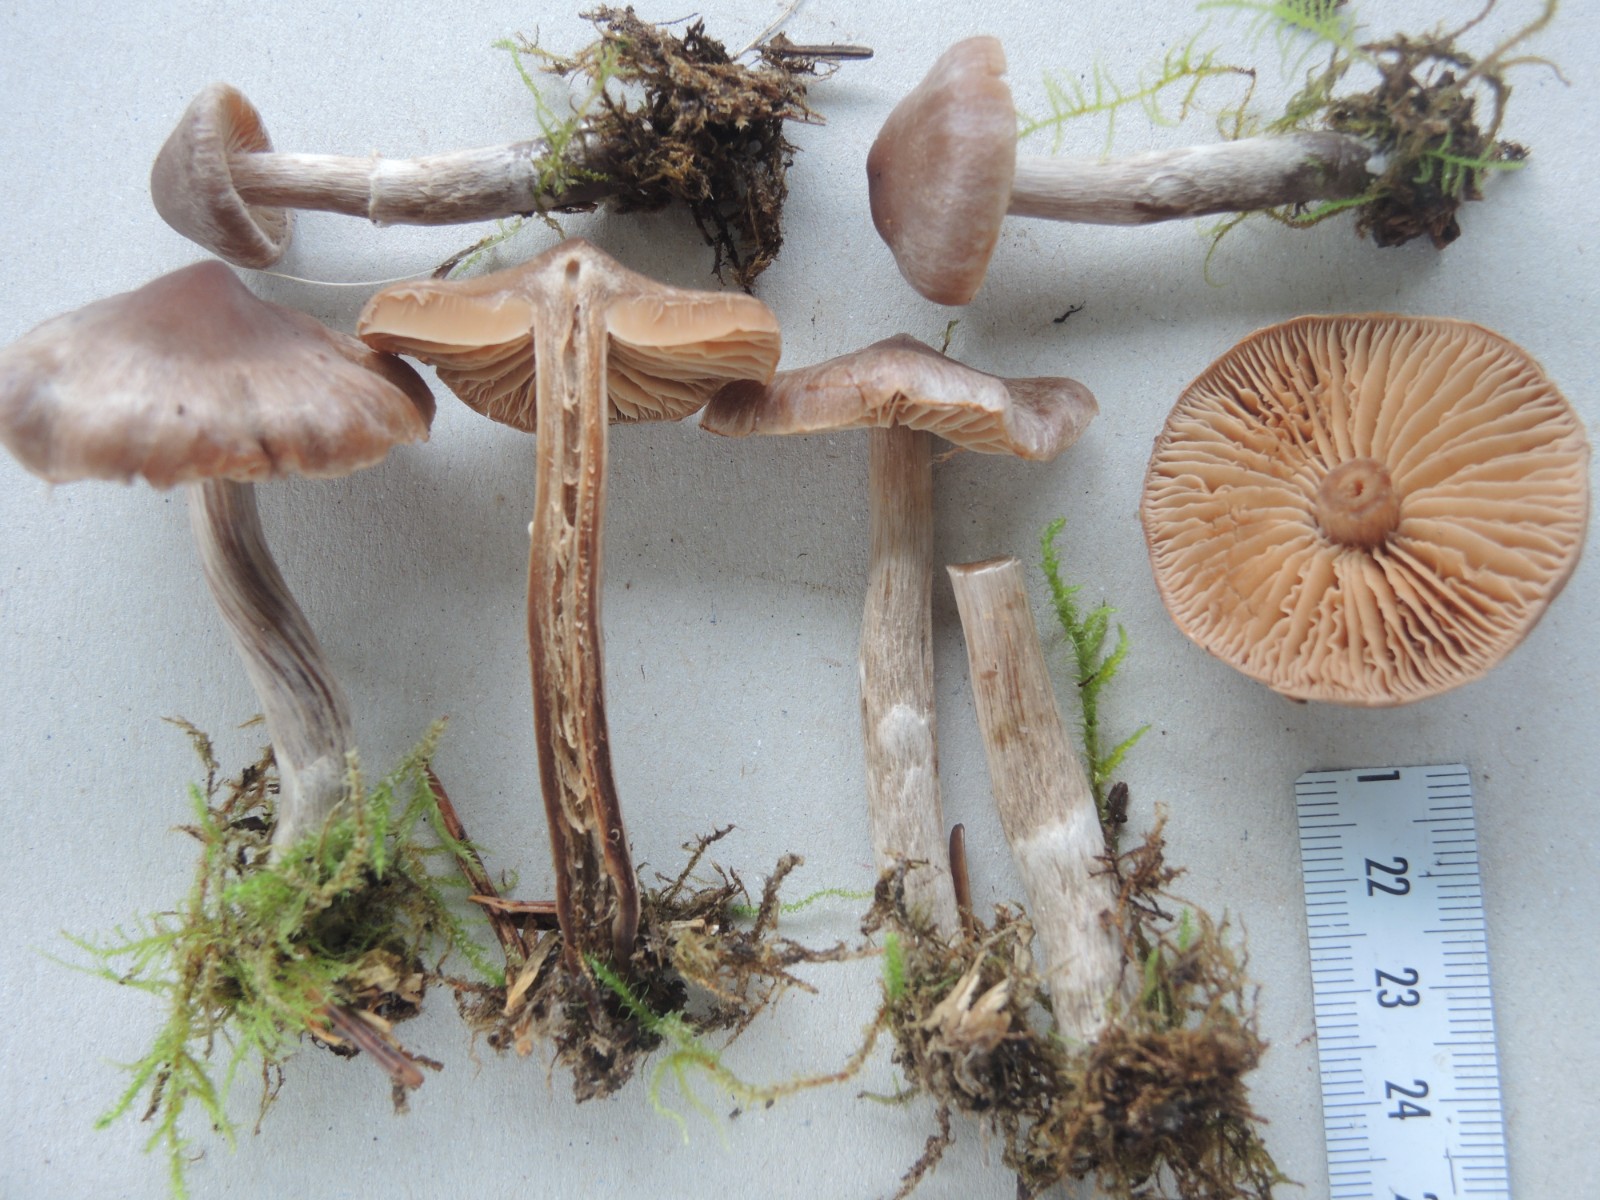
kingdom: Fungi
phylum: Basidiomycota
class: Agaricomycetes
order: Agaricales
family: Cortinariaceae
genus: Cortinarius
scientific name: Cortinarius famatus
